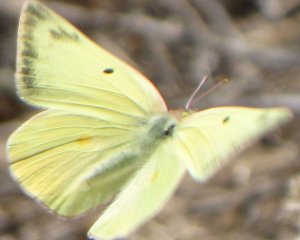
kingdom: Animalia
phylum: Arthropoda
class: Insecta
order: Lepidoptera
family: Pieridae
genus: Colias
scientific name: Colias alexandra
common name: Queen Alexandra's Sulphur
